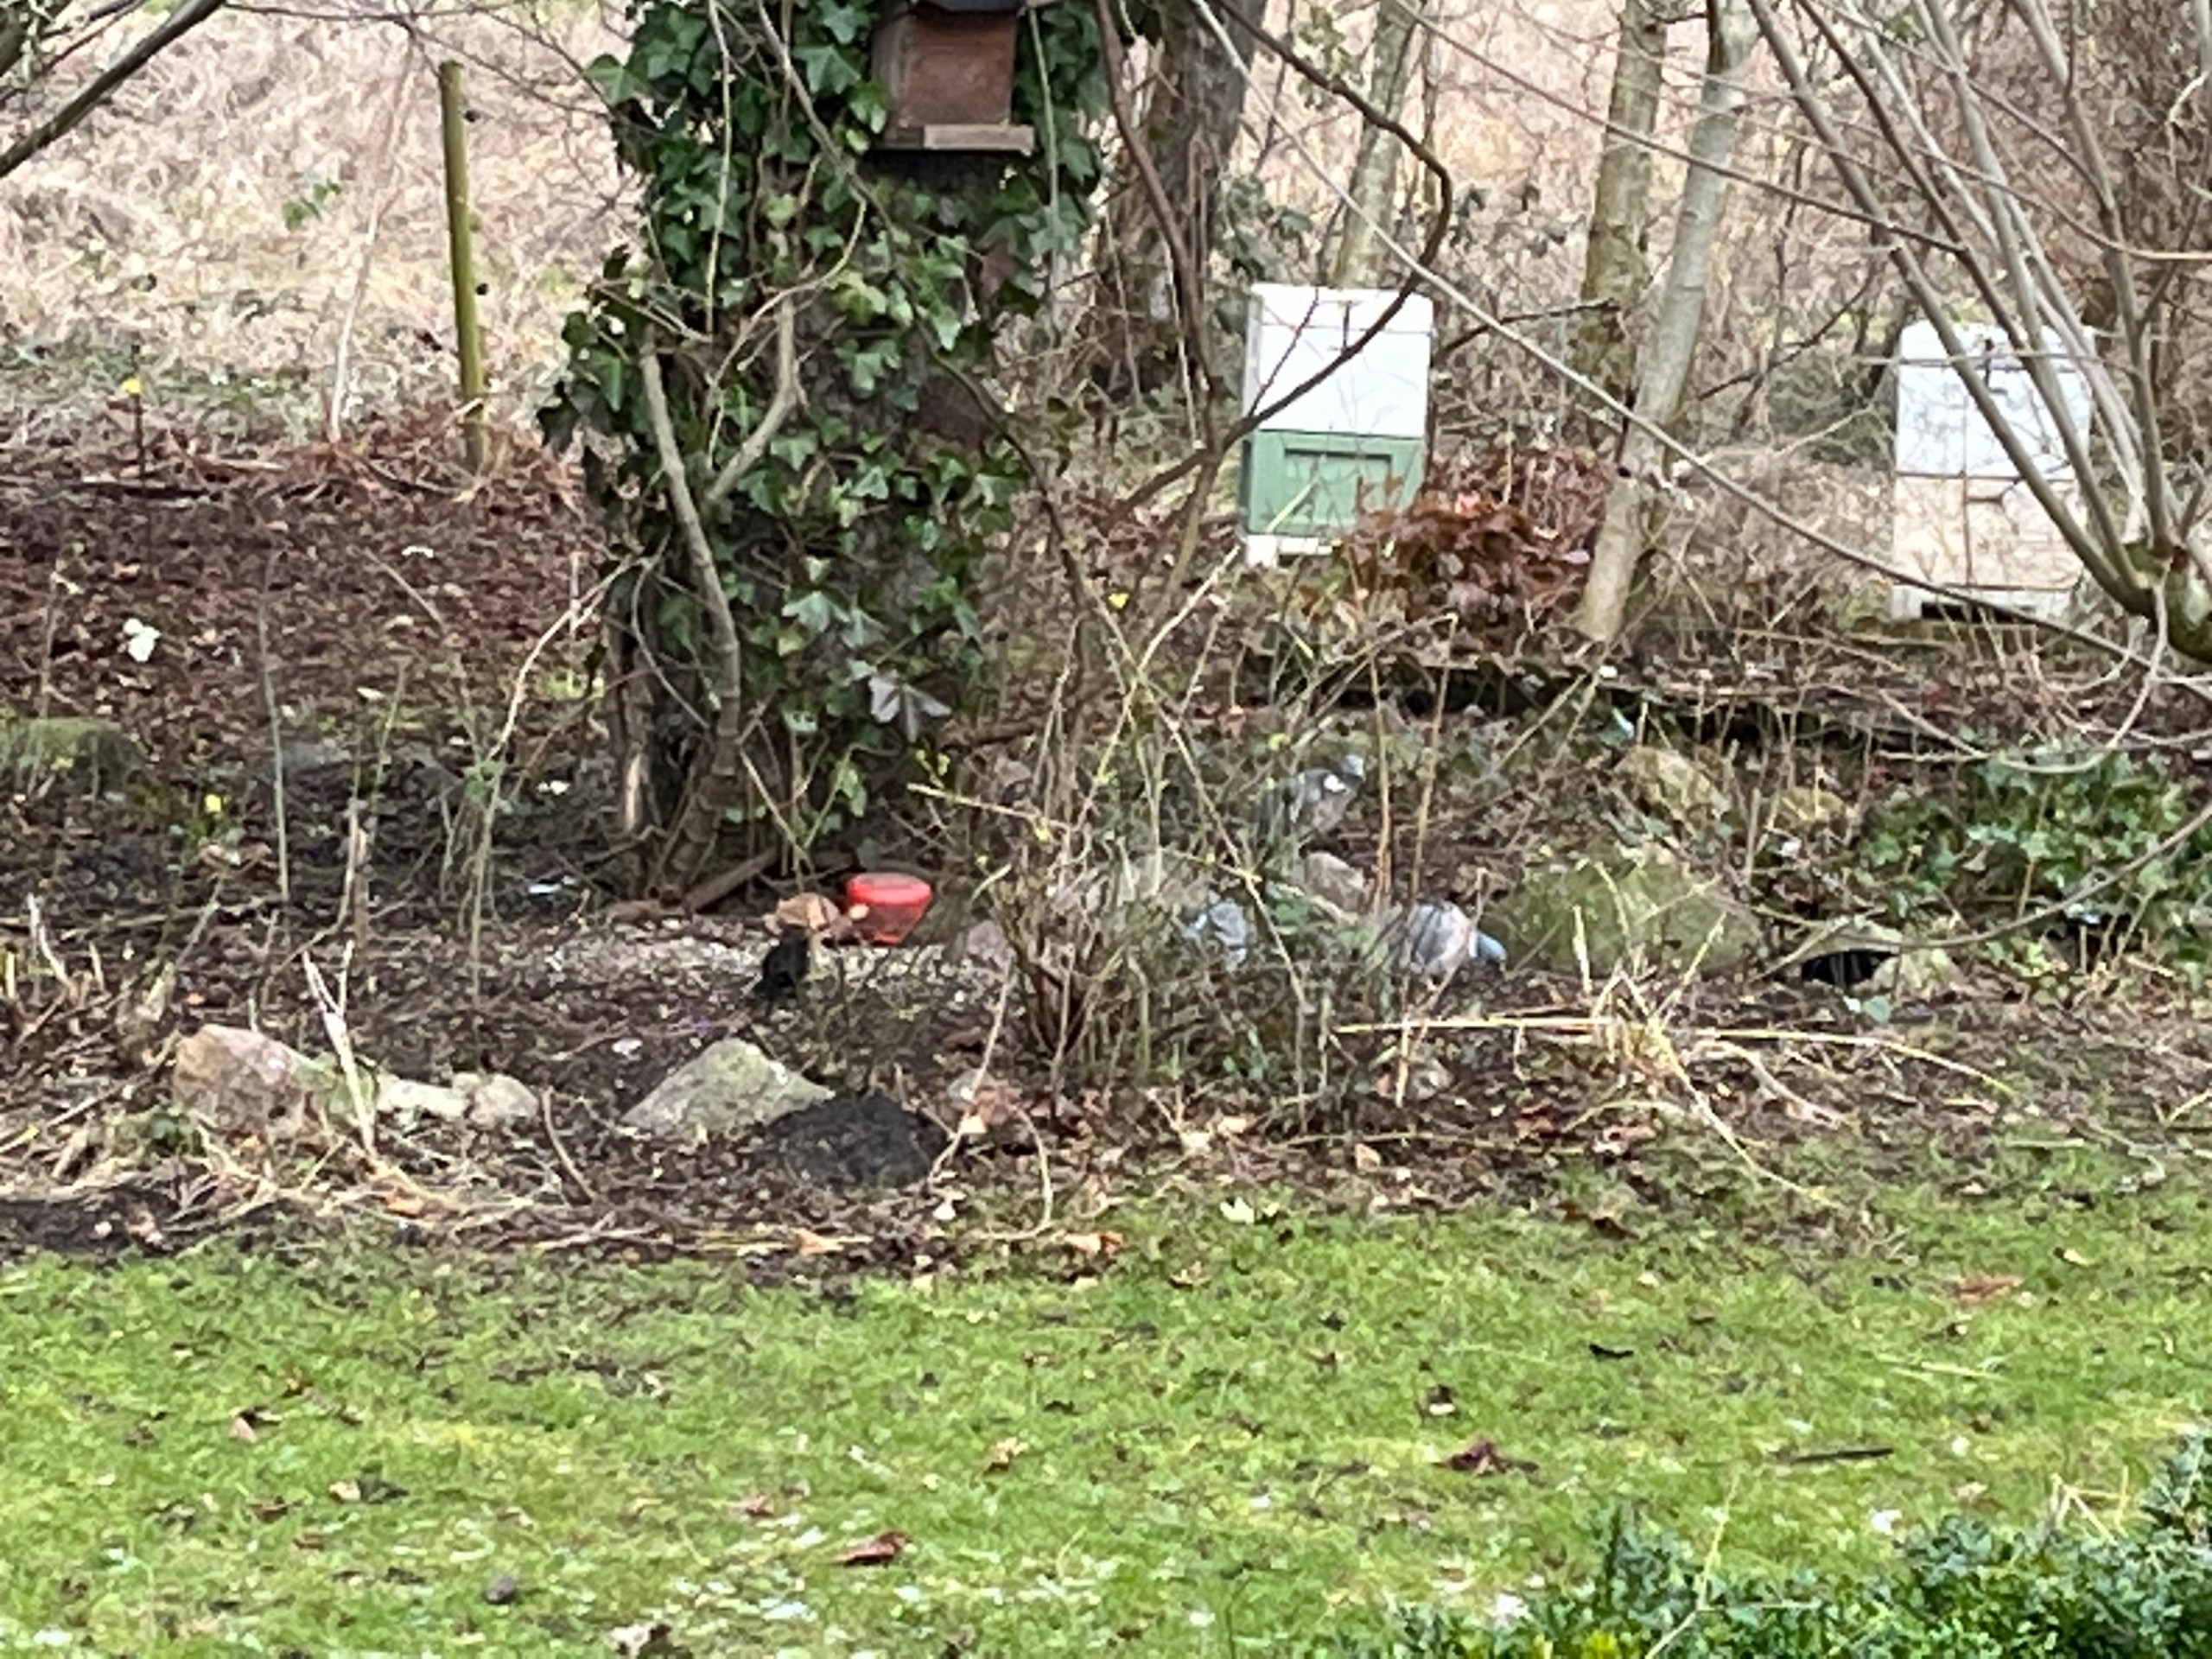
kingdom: Animalia
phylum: Chordata
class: Aves
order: Columbiformes
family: Columbidae
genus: Columba
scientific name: Columba palumbus
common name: Ringdue
